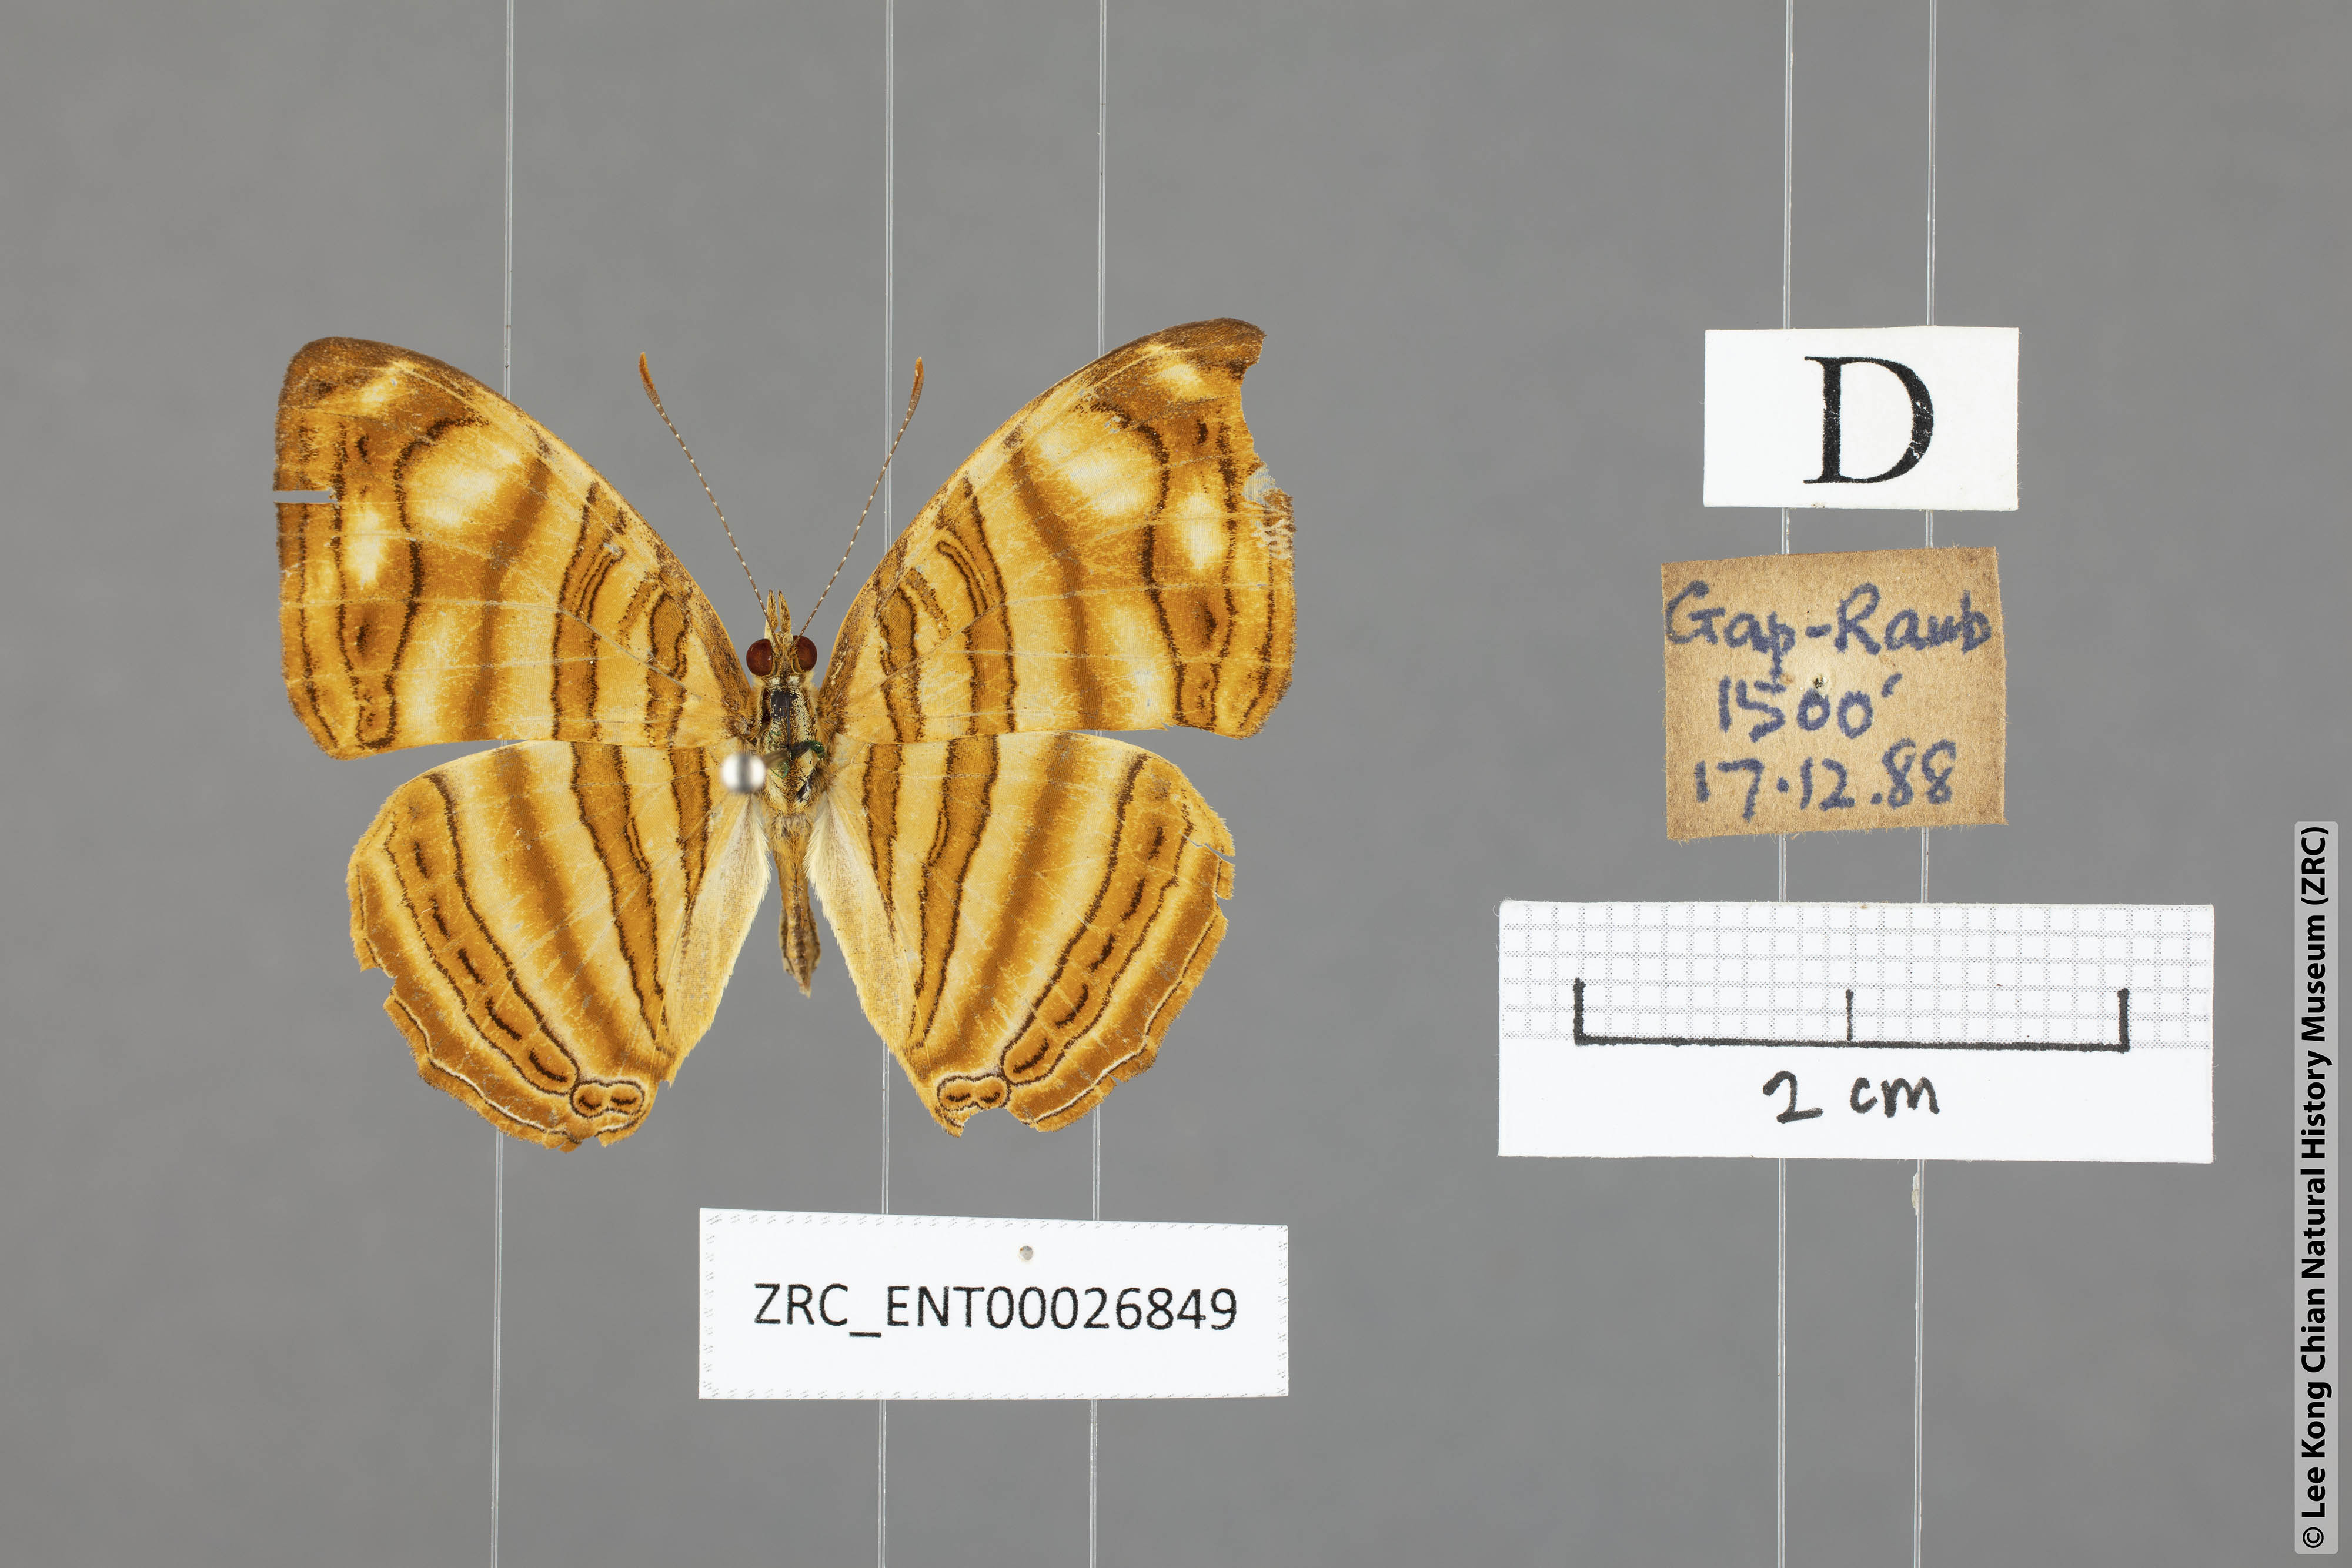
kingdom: Animalia
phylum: Arthropoda
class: Insecta
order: Lepidoptera
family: Nymphalidae
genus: Chersonesia
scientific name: Chersonesia rahria
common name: Wavy maplet
